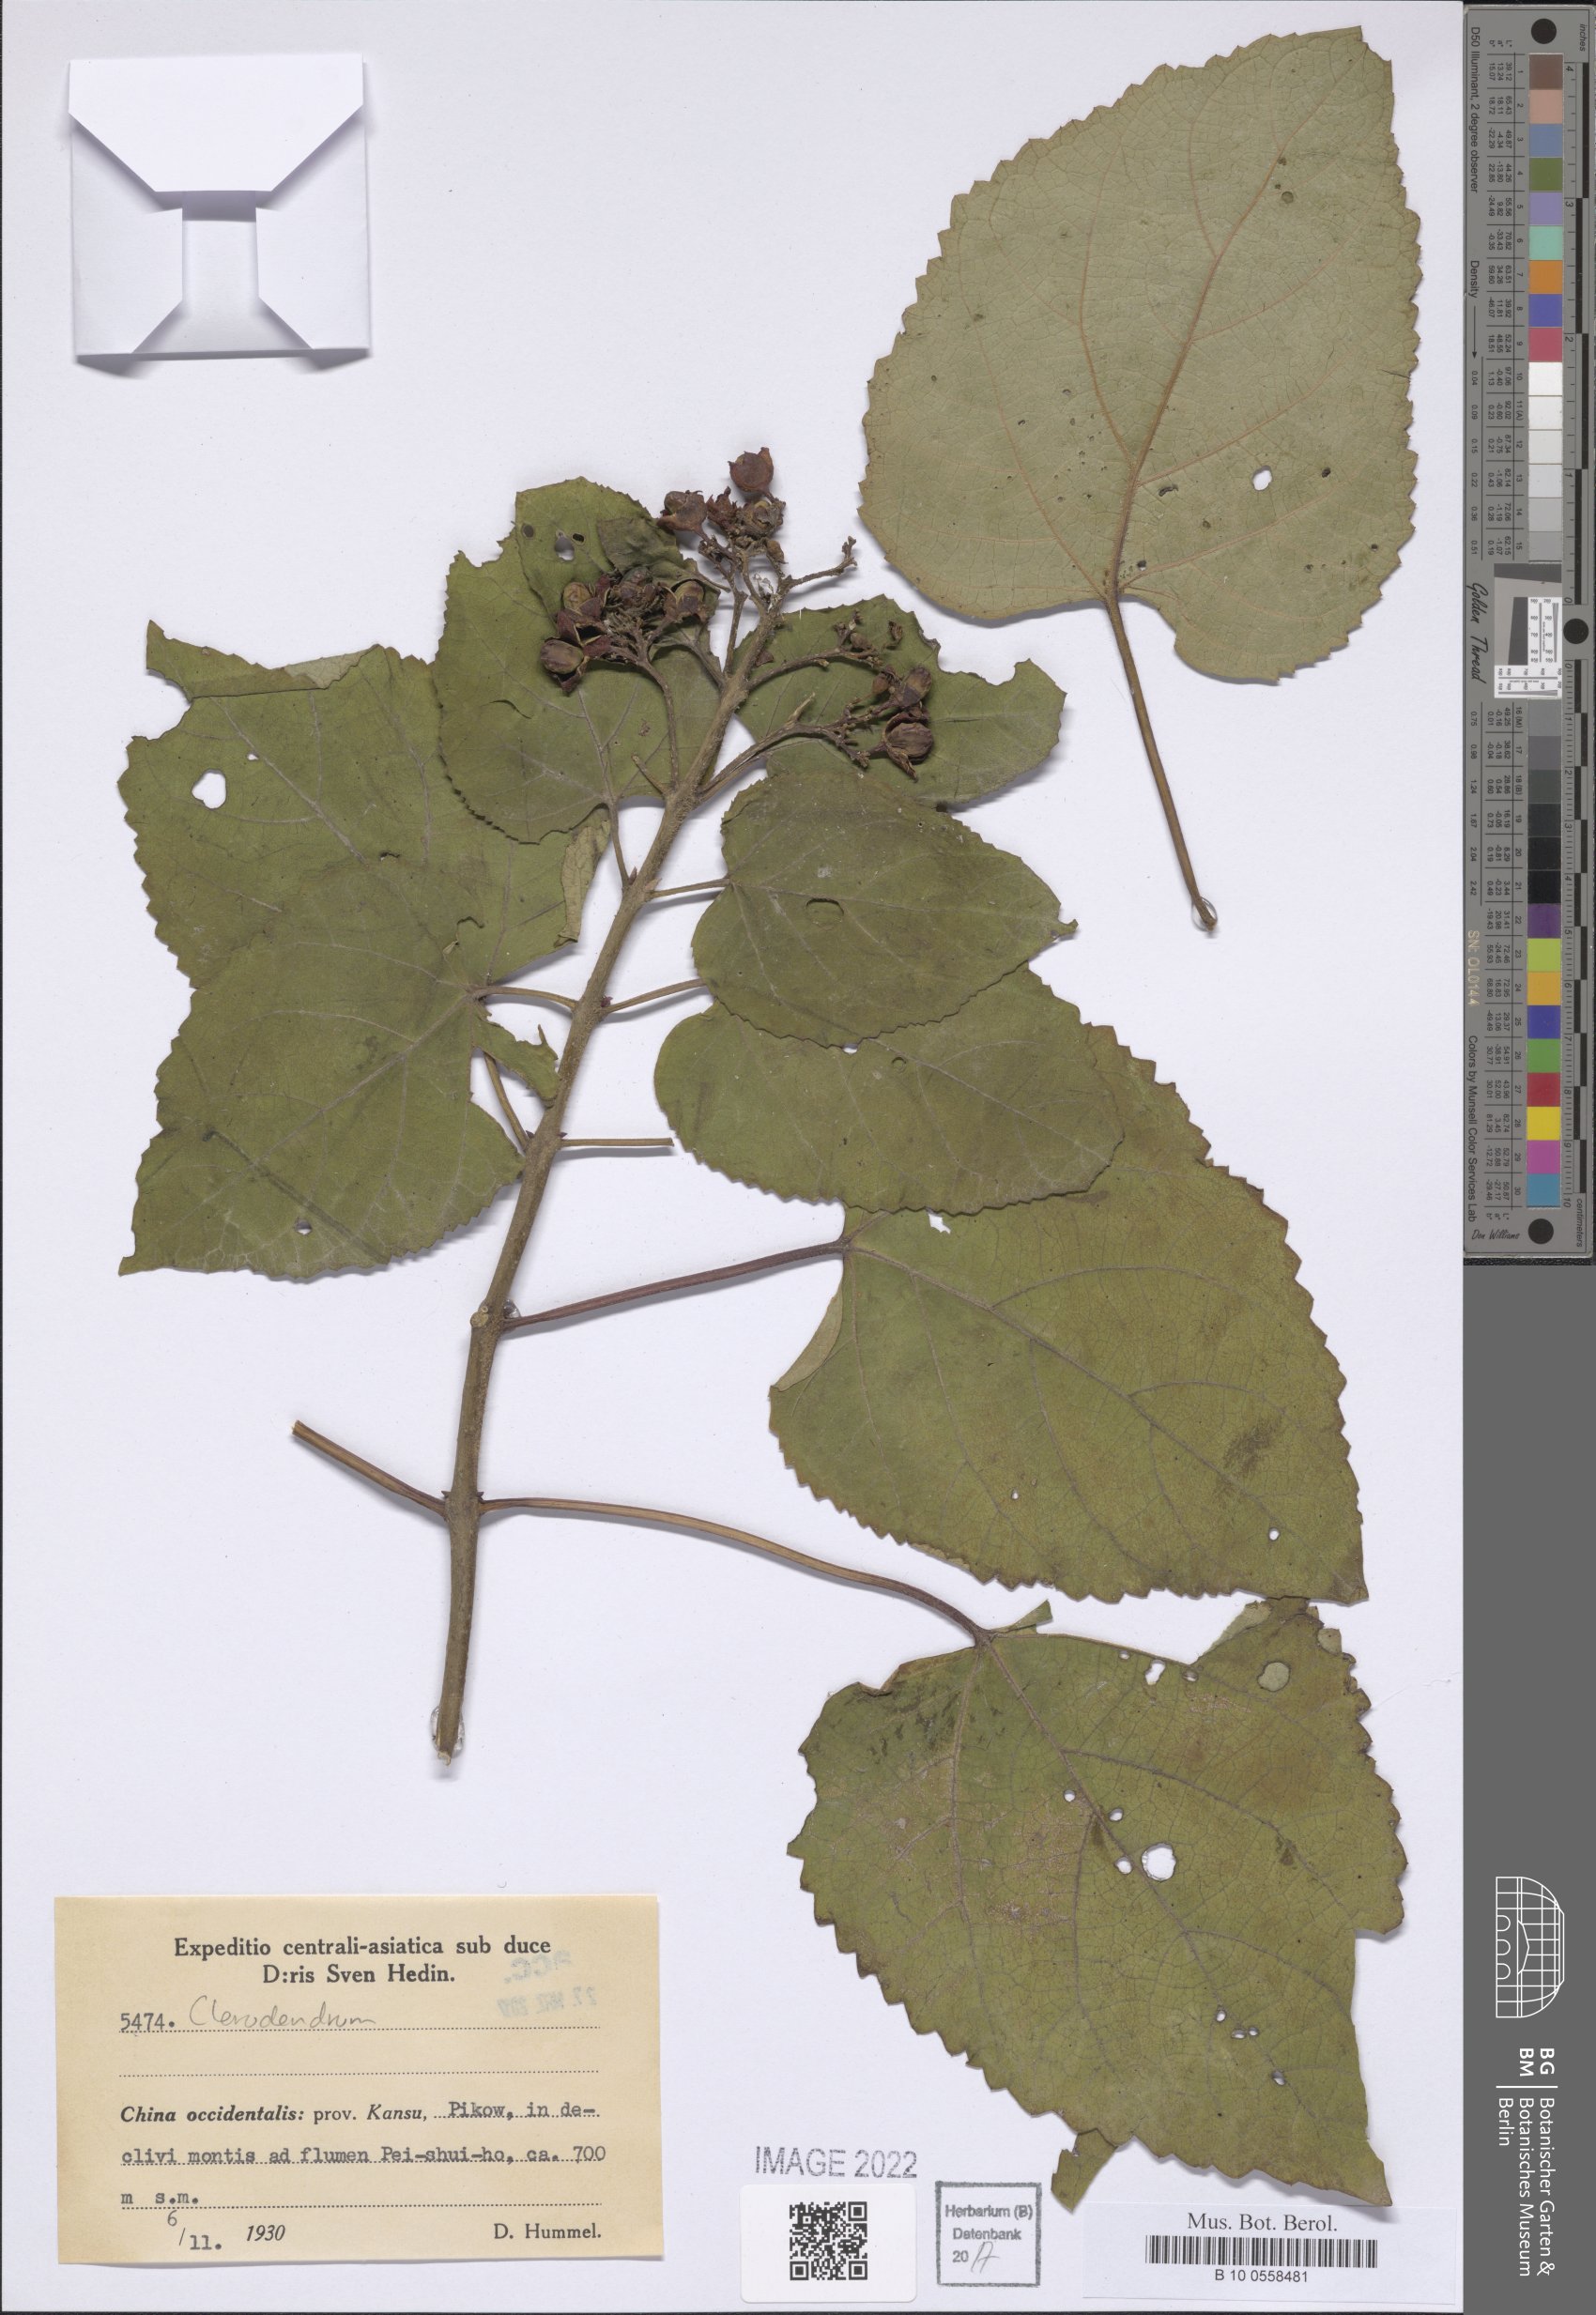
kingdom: Plantae
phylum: Tracheophyta
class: Magnoliopsida
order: Lamiales
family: Lamiaceae
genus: Clerodendrum
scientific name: Clerodendrum
